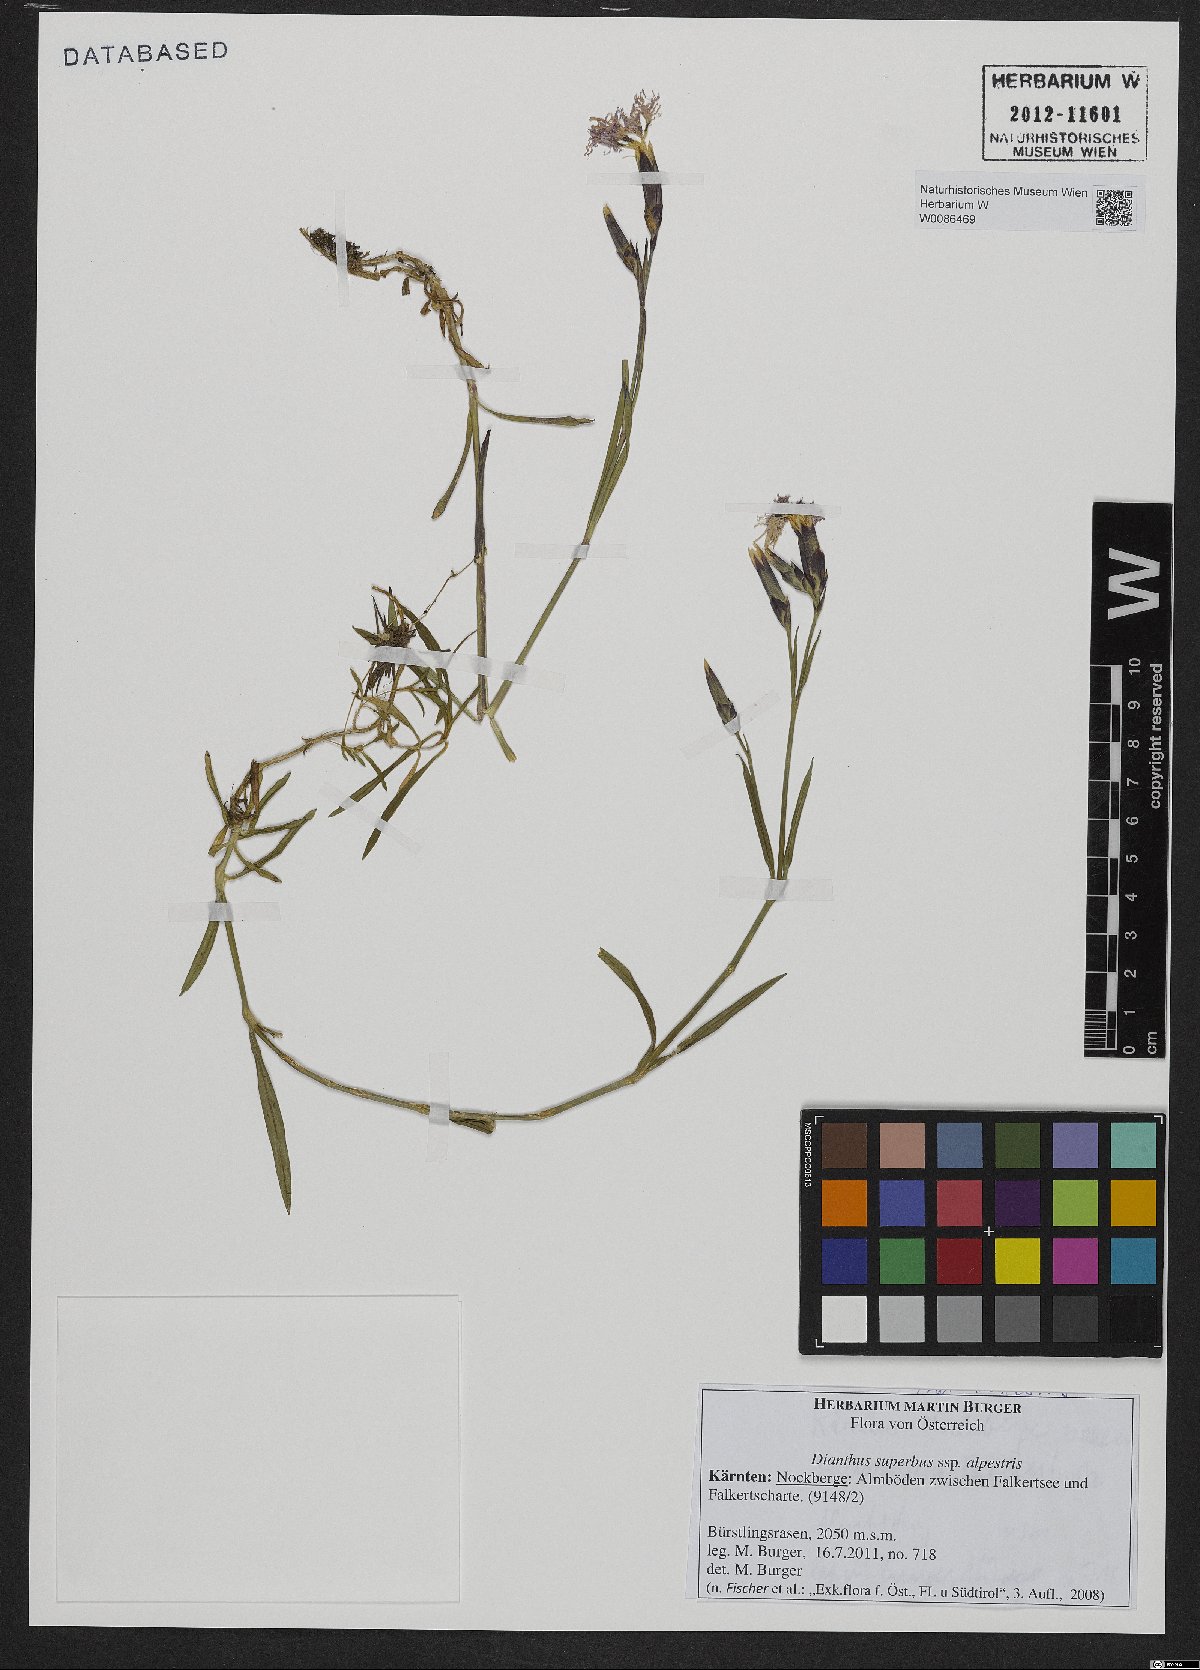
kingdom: Plantae
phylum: Tracheophyta
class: Magnoliopsida
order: Caryophyllales
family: Caryophyllaceae
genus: Dianthus
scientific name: Dianthus superbus
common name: Fringed pink
